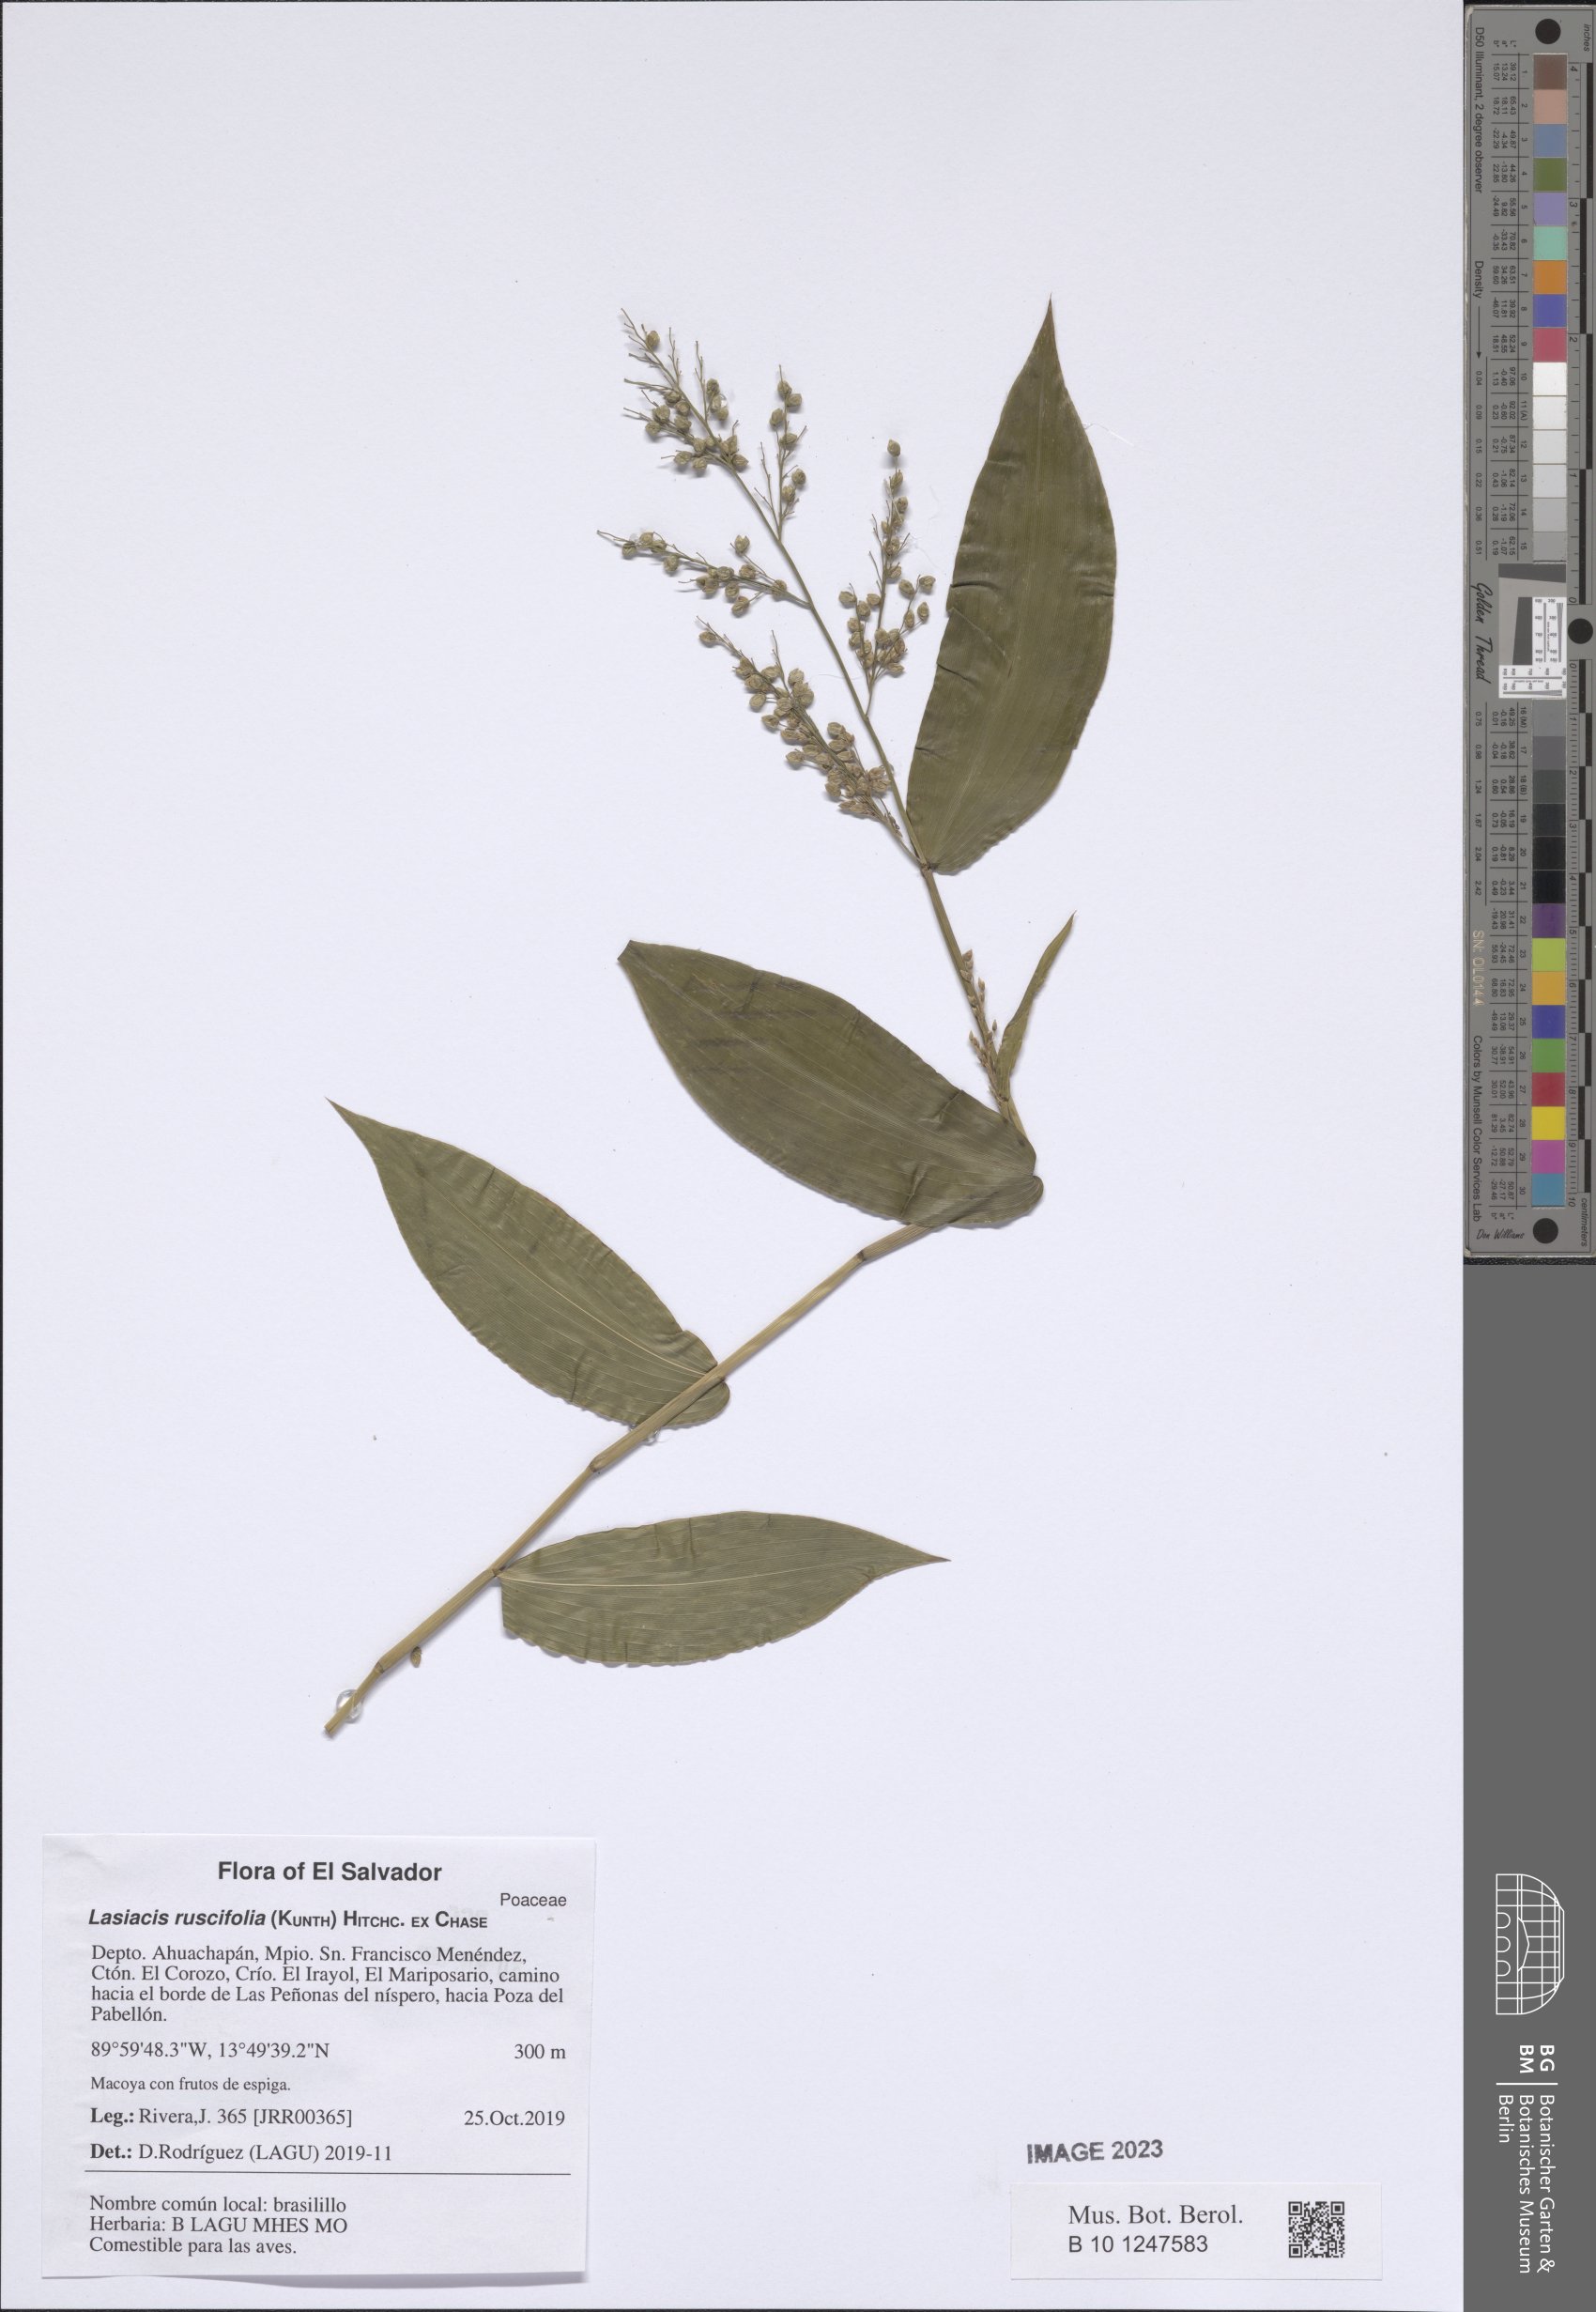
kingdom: Plantae
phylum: Tracheophyta
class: Liliopsida
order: Poales
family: Poaceae
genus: Lasiacis
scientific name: Lasiacis ruscifolia
